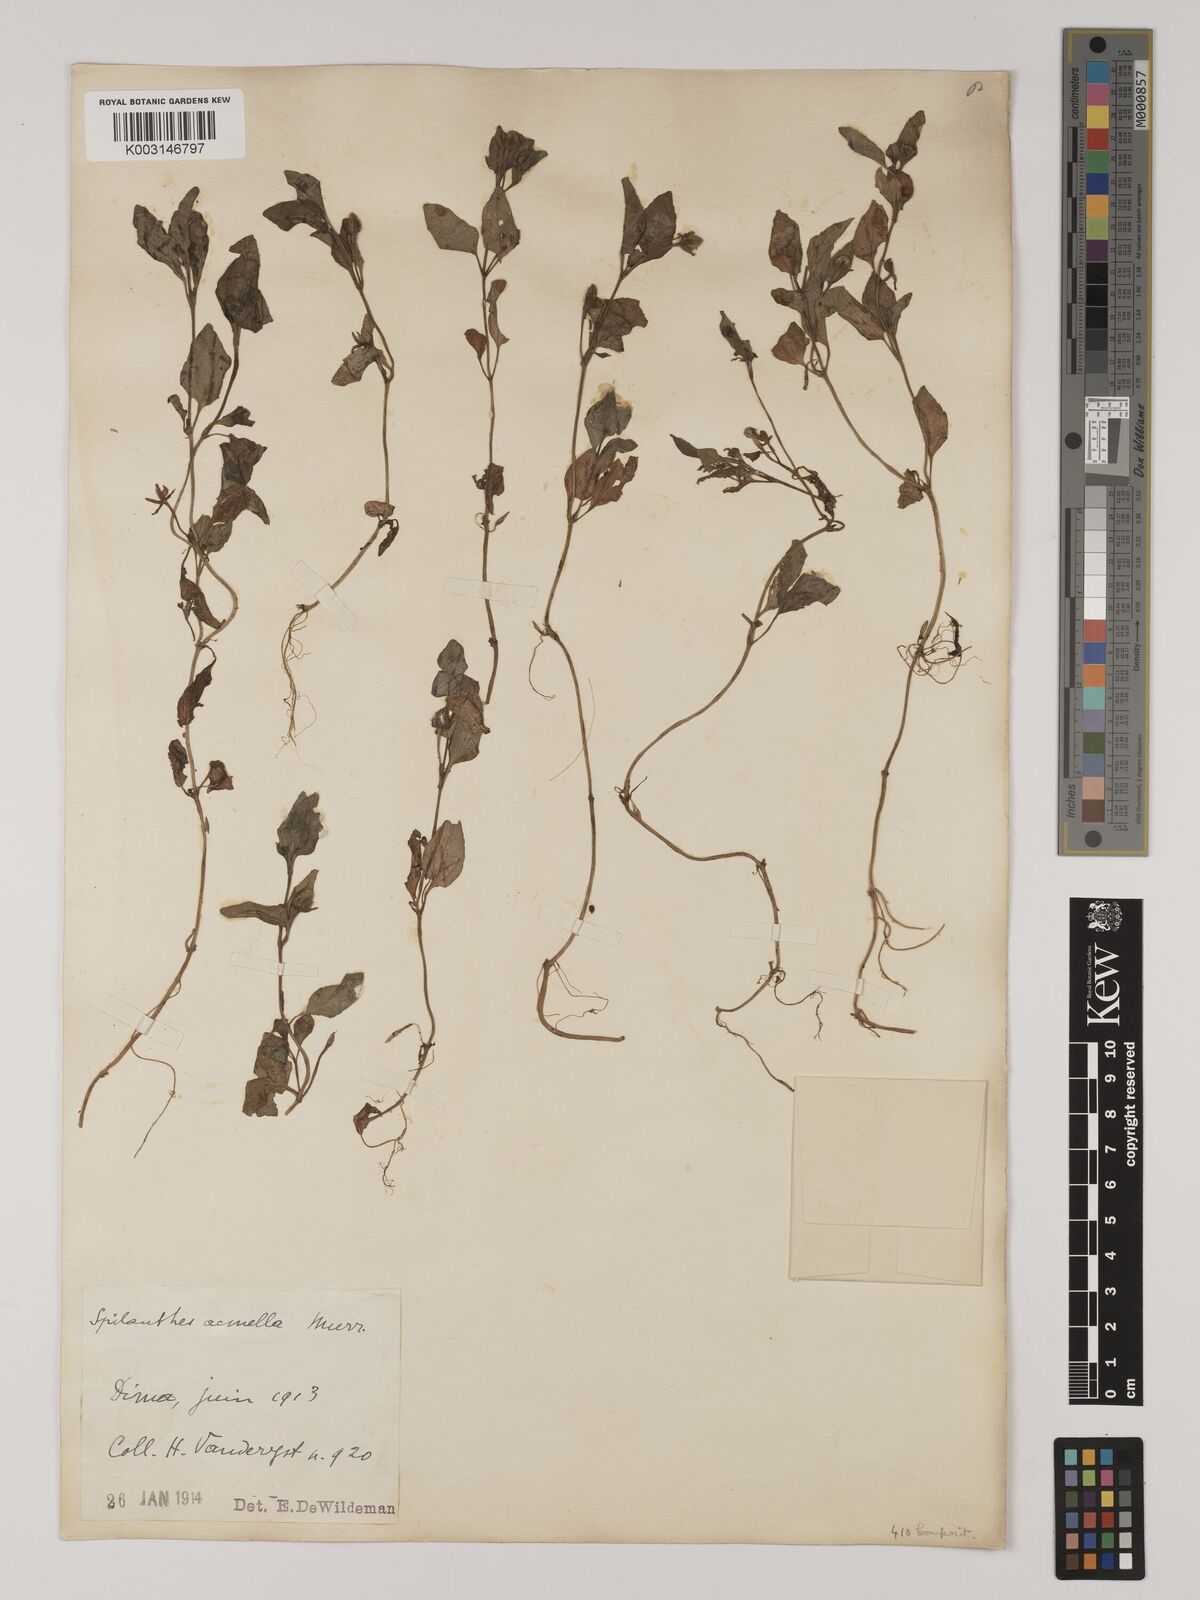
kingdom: Plantae
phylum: Tracheophyta
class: Magnoliopsida
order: Asterales
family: Asteraceae
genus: Acmella
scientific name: Acmella caulirhiza
